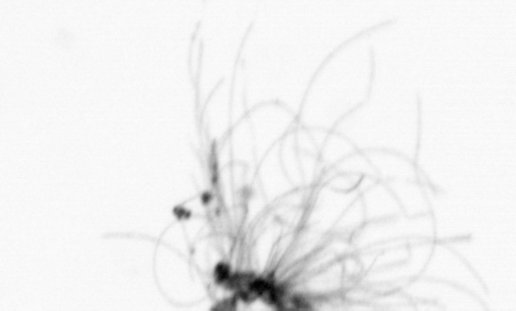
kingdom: Bacteria
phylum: Cyanobacteria
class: Cyanobacteriia
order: Cyanobacteriales
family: Microcoleaceae
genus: Trichodesmium
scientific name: Trichodesmium
